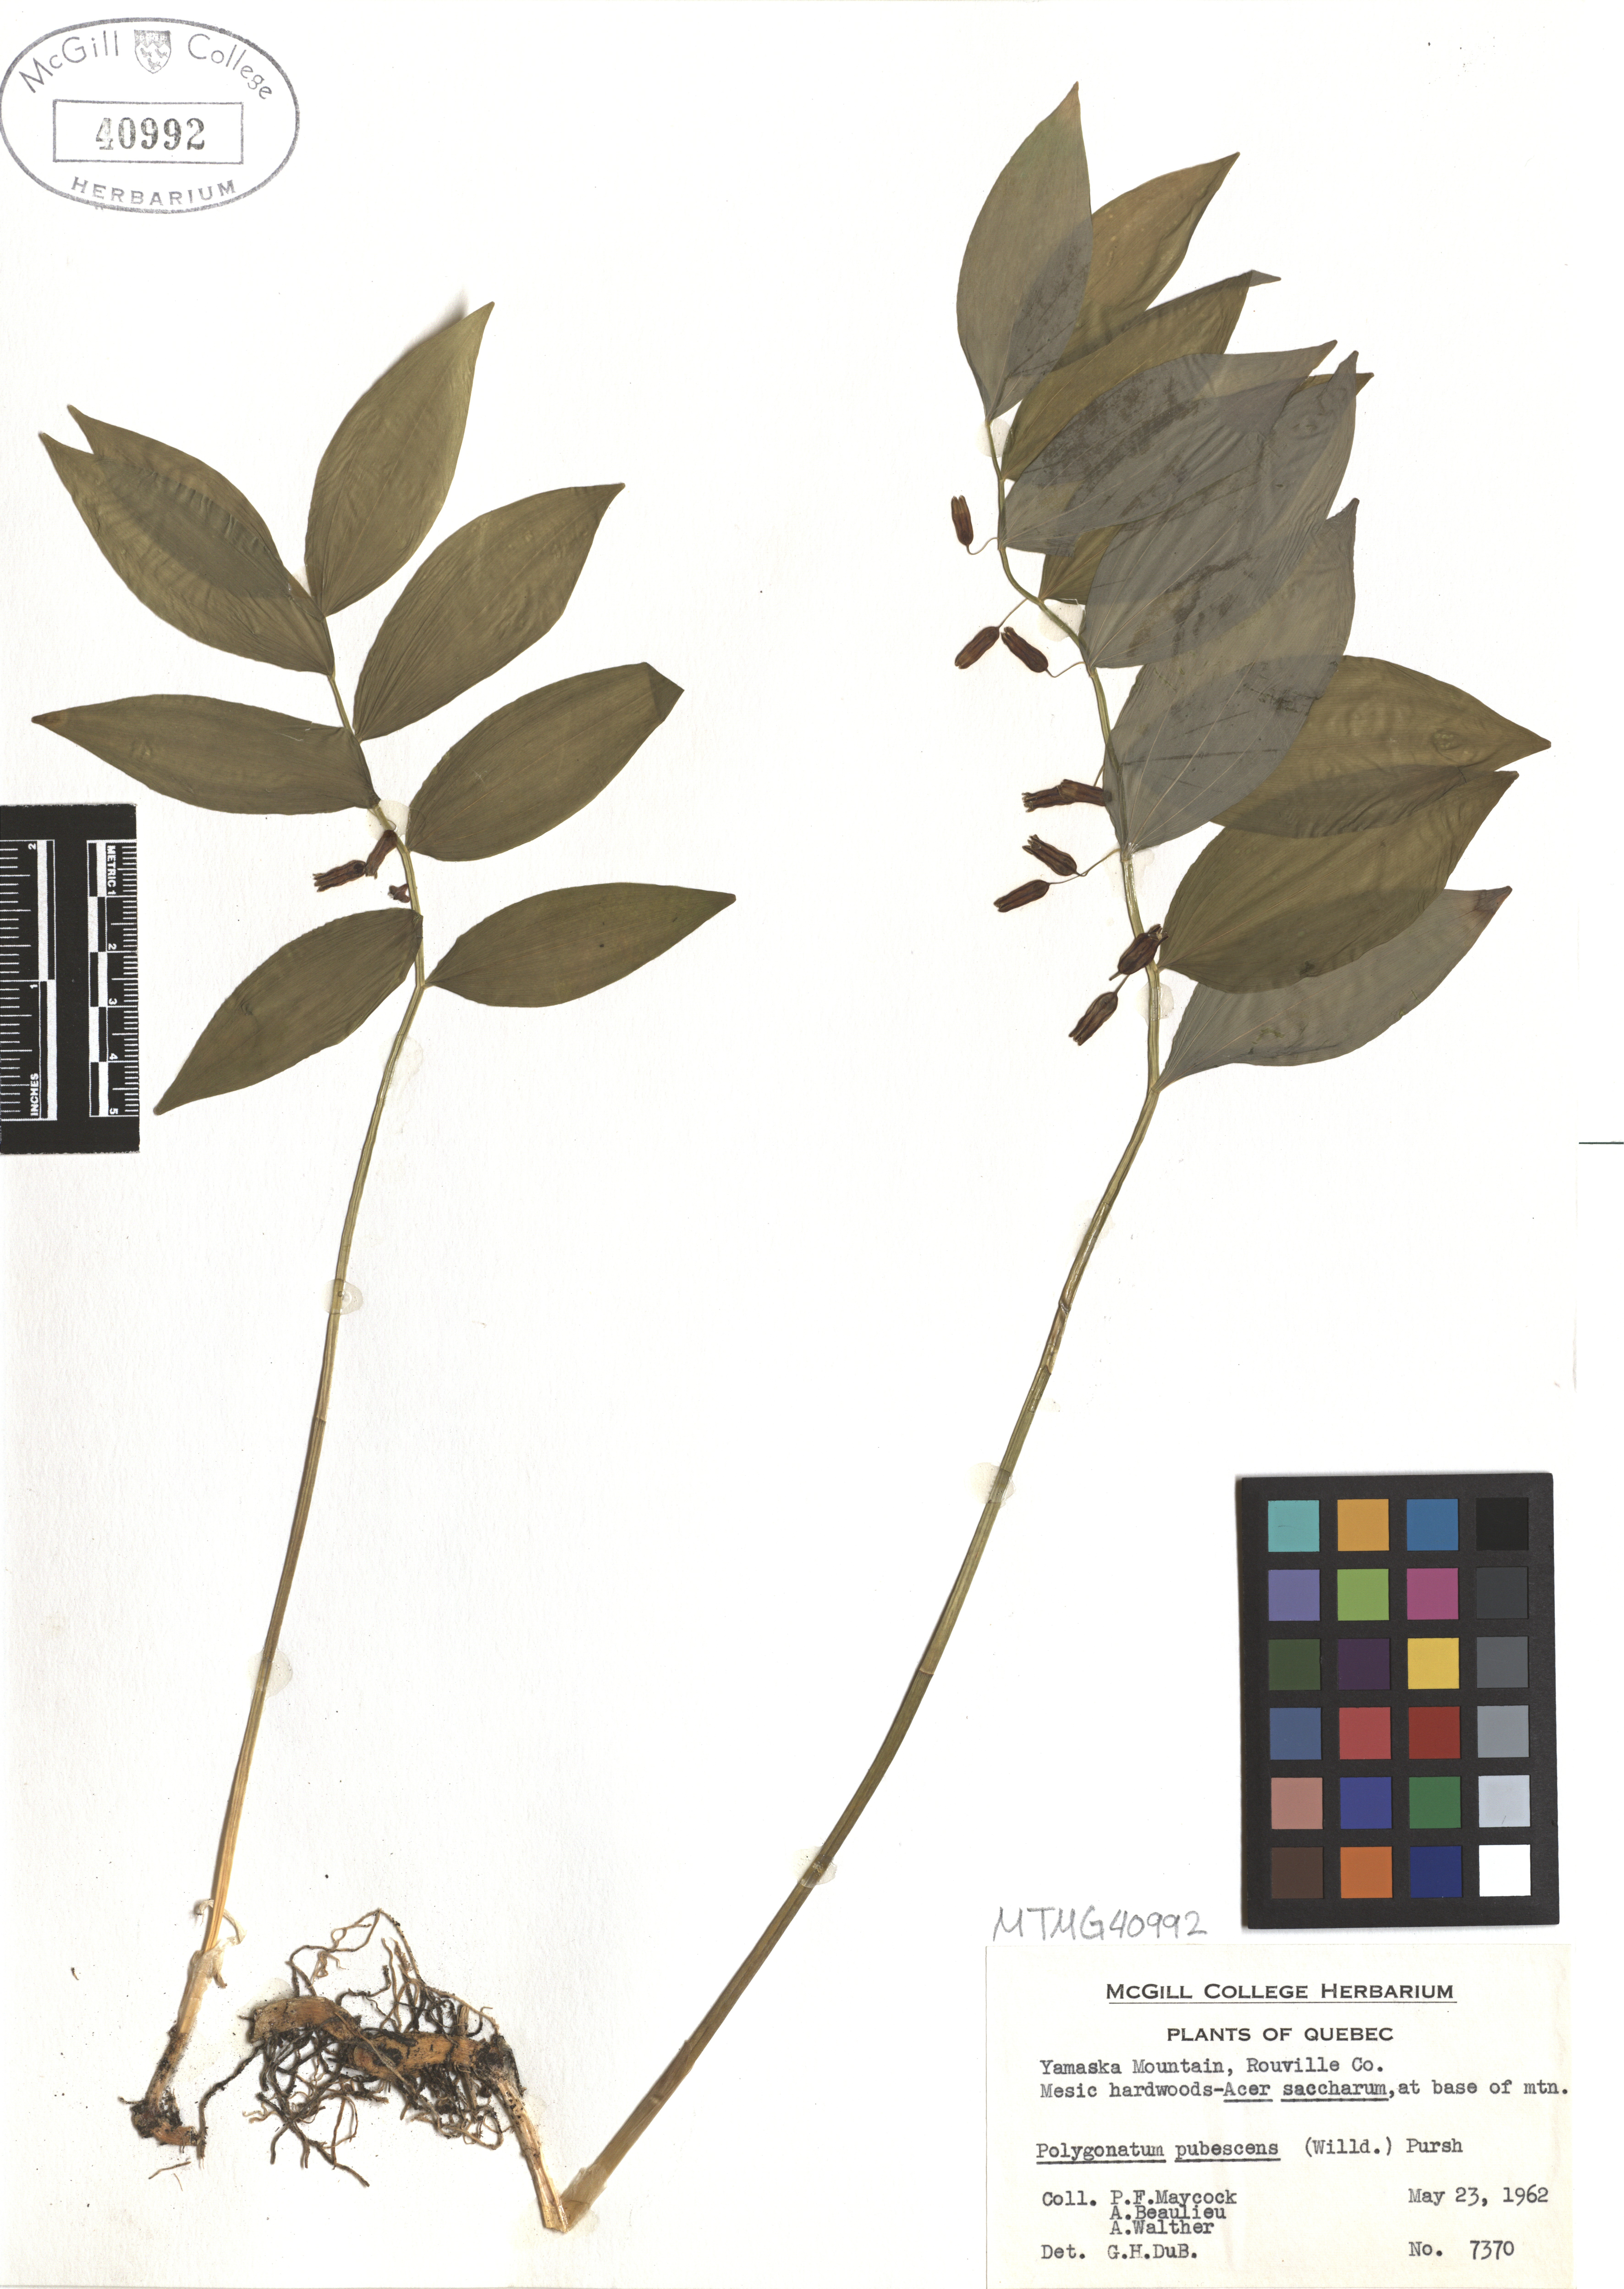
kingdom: Plantae
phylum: Tracheophyta
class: Liliopsida
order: Asparagales
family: Asparagaceae
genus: Polygonatum
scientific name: Polygonatum pubescens
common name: Downy solomon's seal
